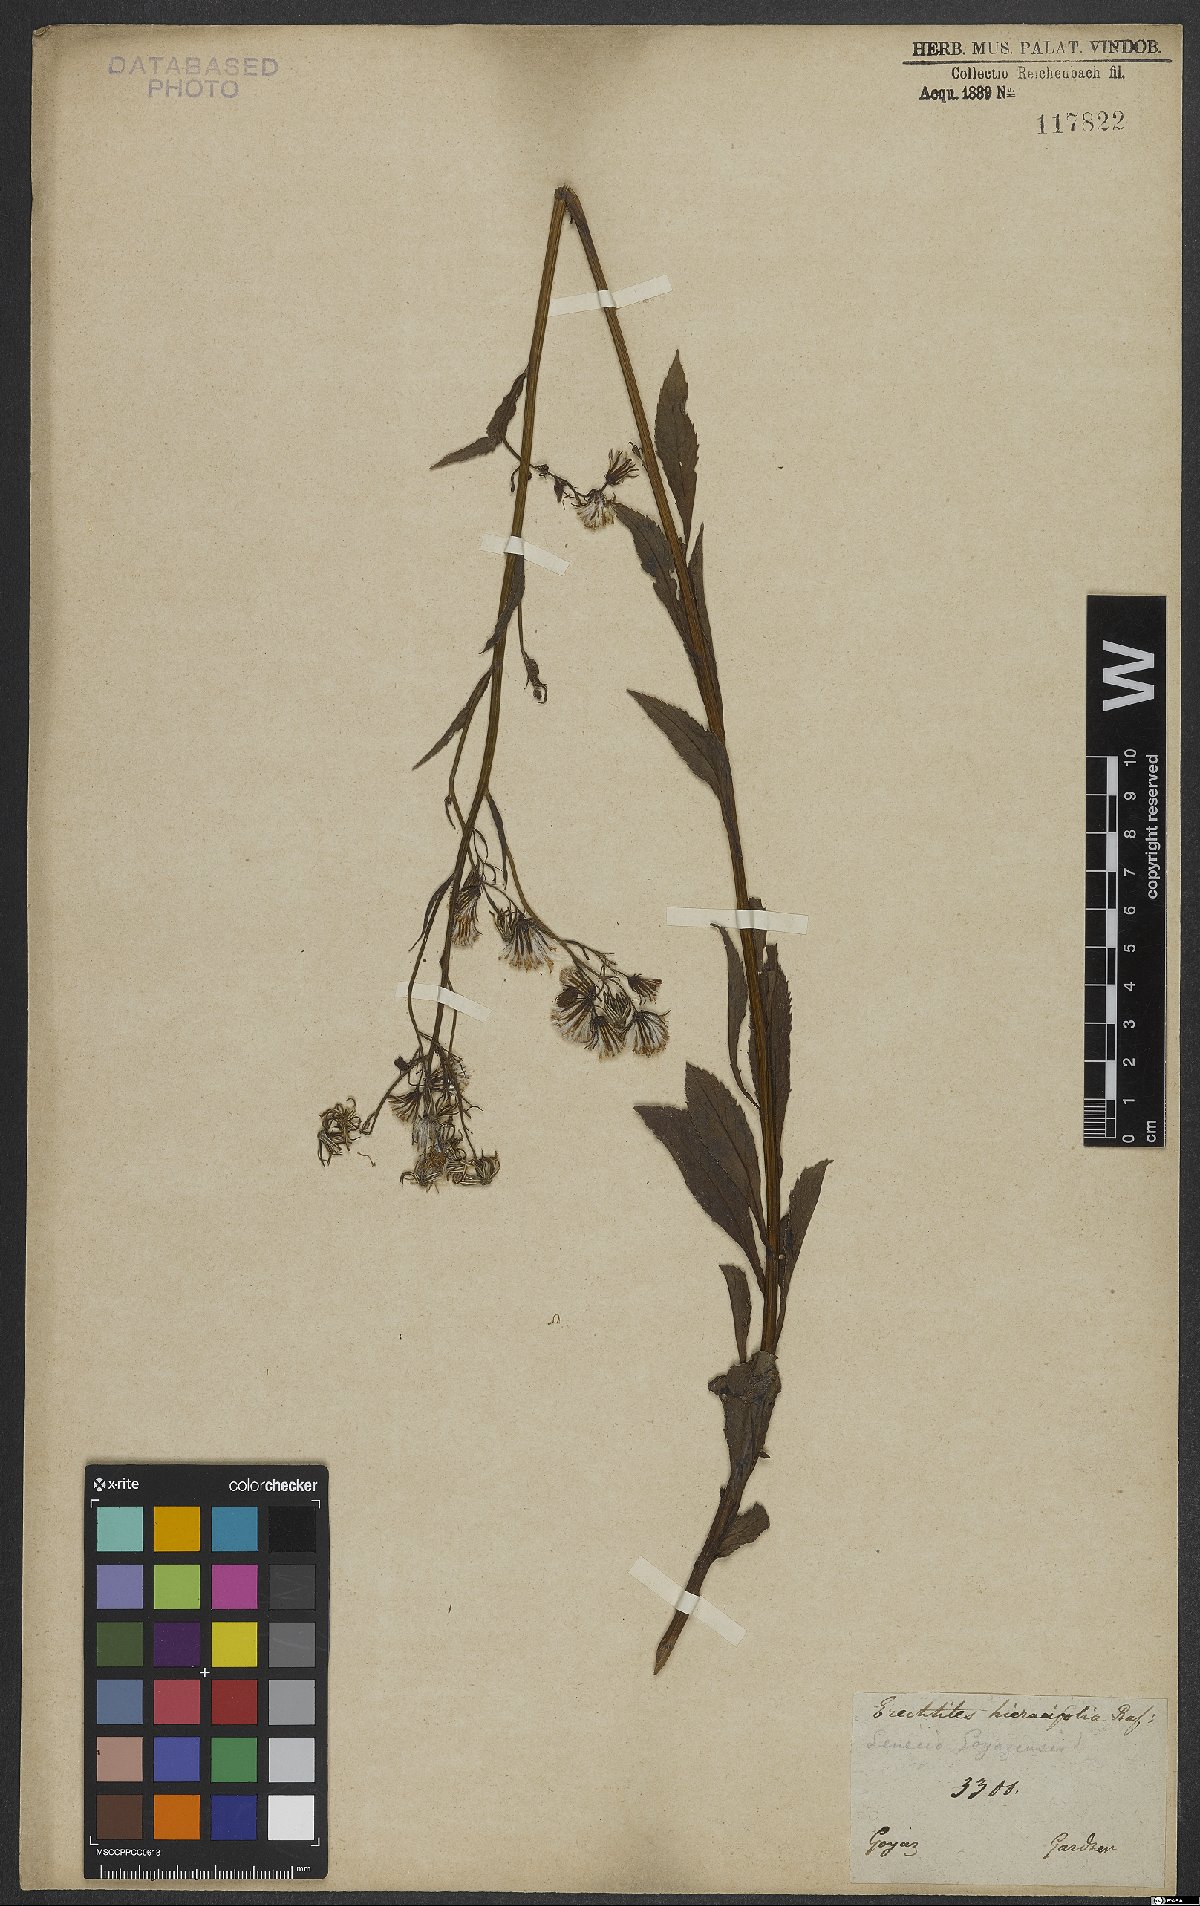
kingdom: Plantae
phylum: Tracheophyta
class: Magnoliopsida
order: Asterales
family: Asteraceae
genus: Erechtites
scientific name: Erechtites hieraciifolius
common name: American burnweed
